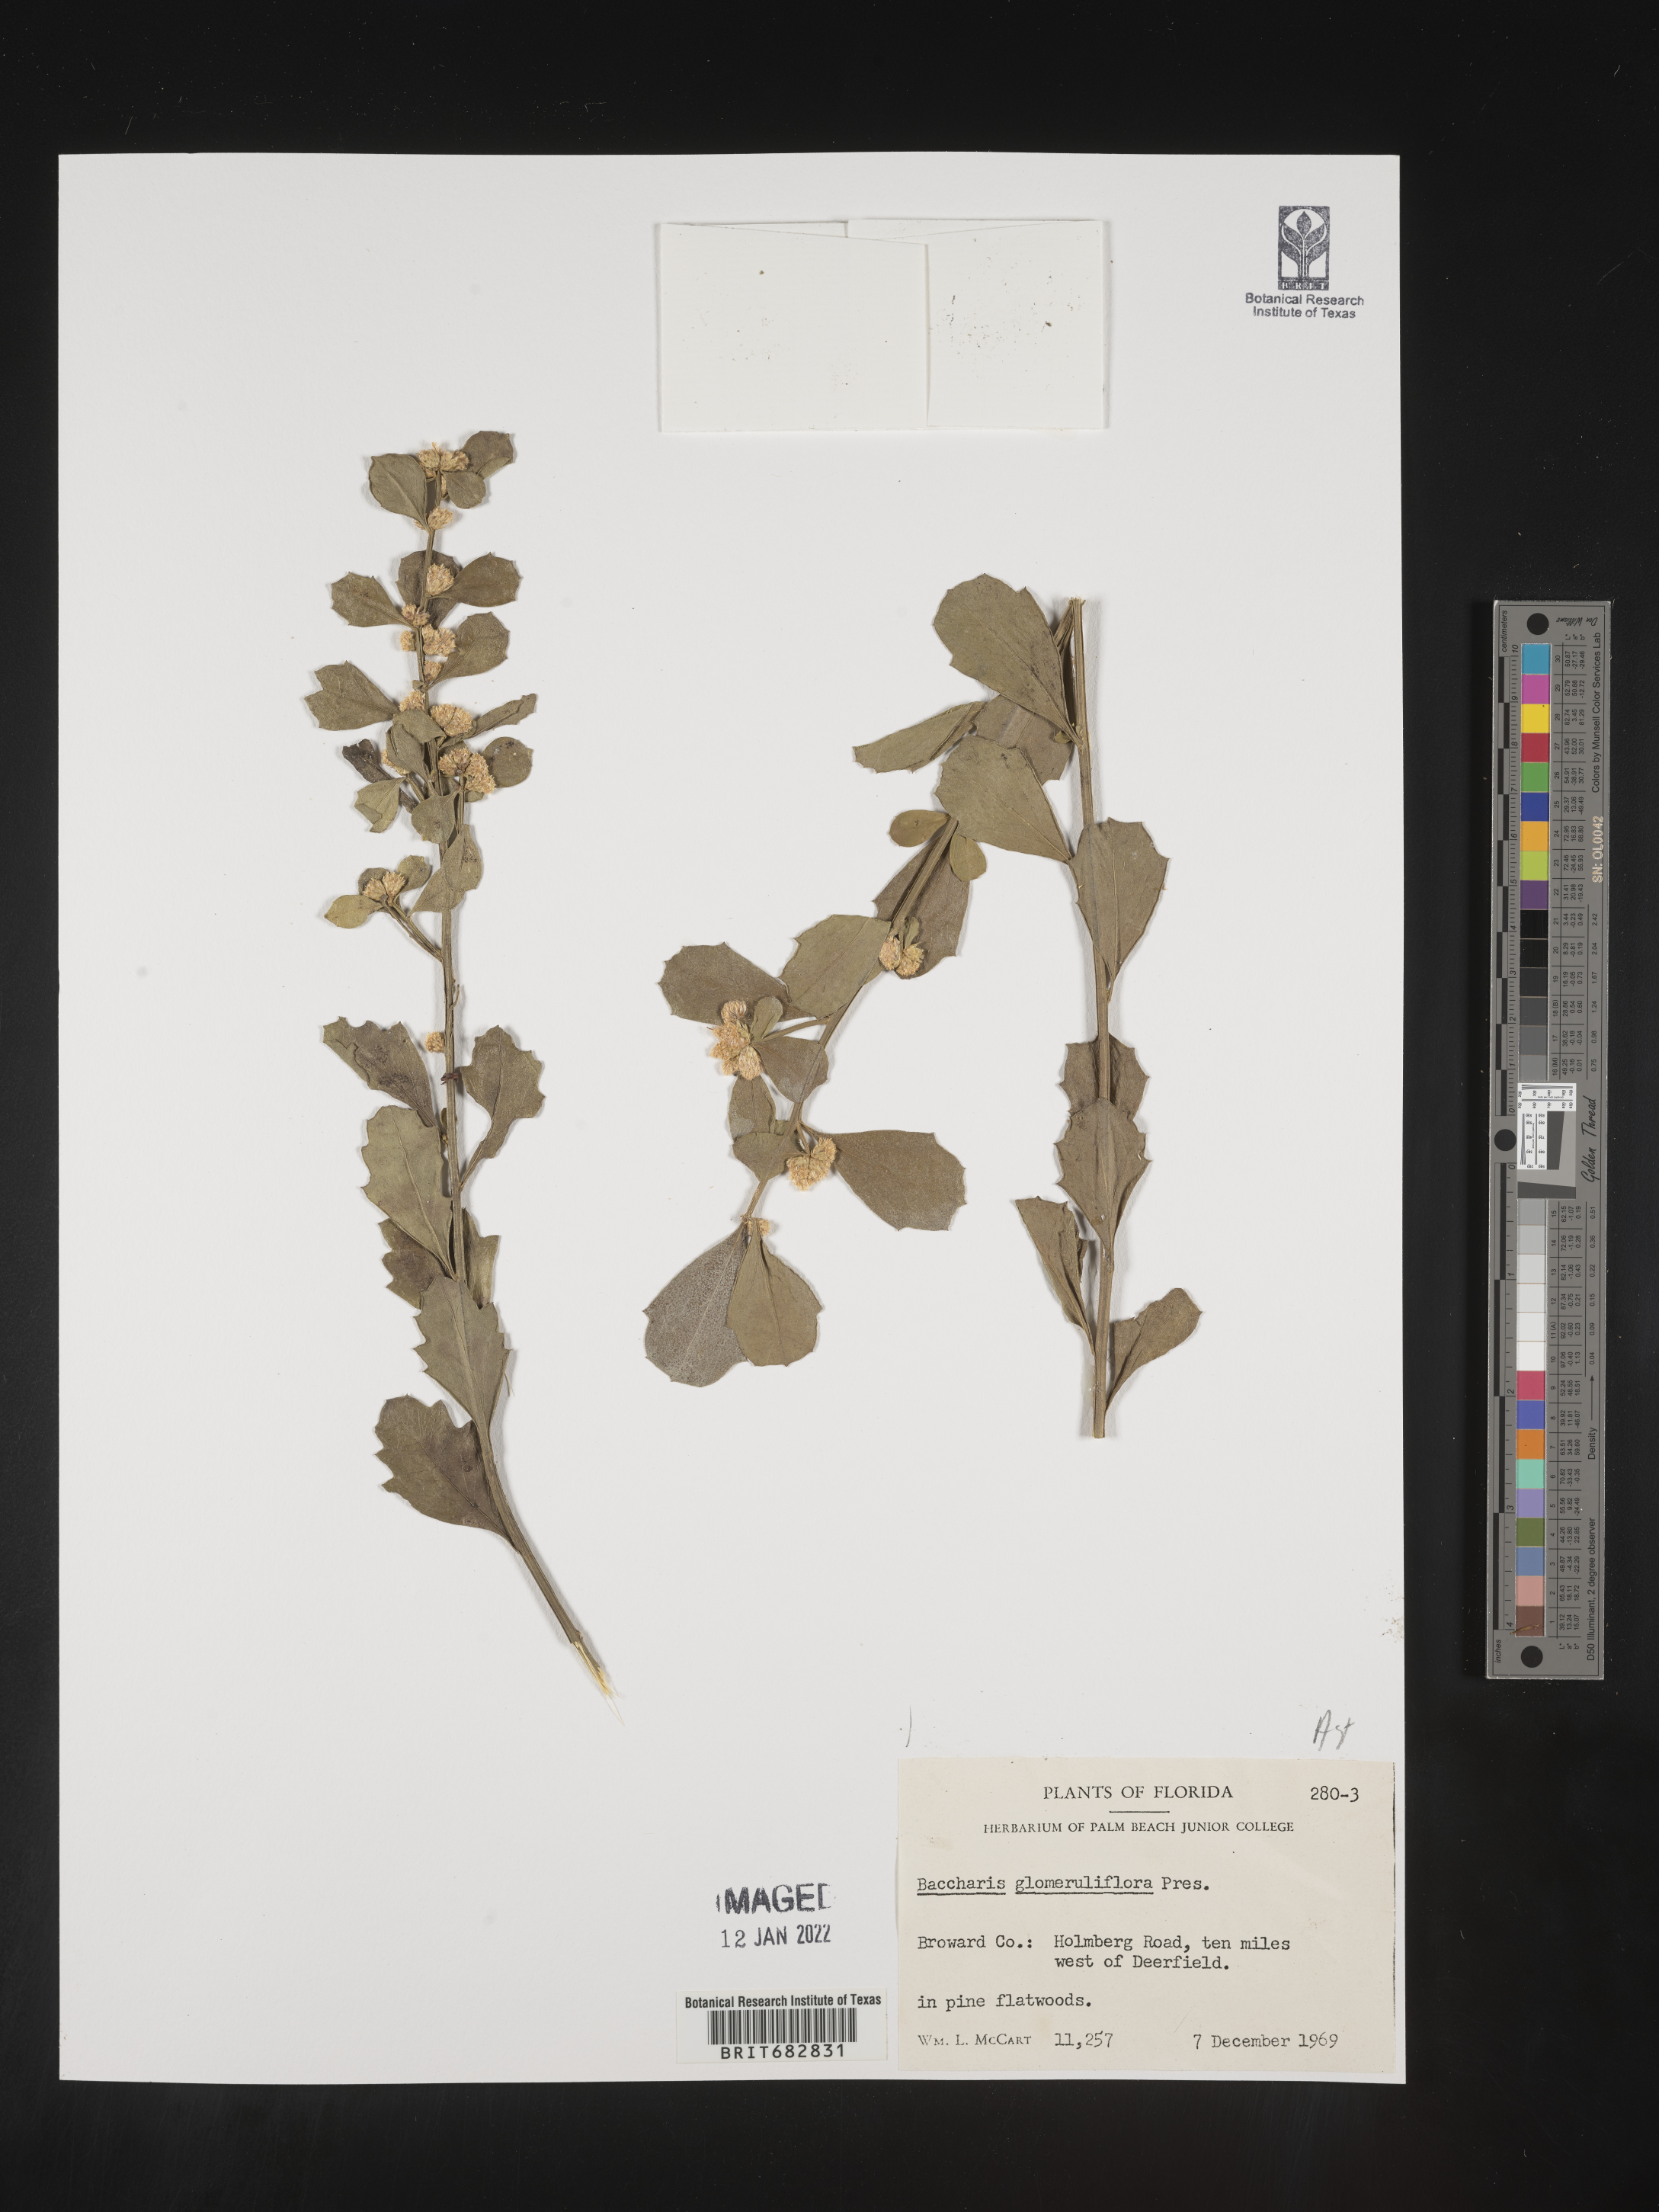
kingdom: Plantae
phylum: Tracheophyta
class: Magnoliopsida
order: Asterales
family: Asteraceae
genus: Baccharis
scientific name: Baccharis glomeruliflora
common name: Silverling groundsel bush
